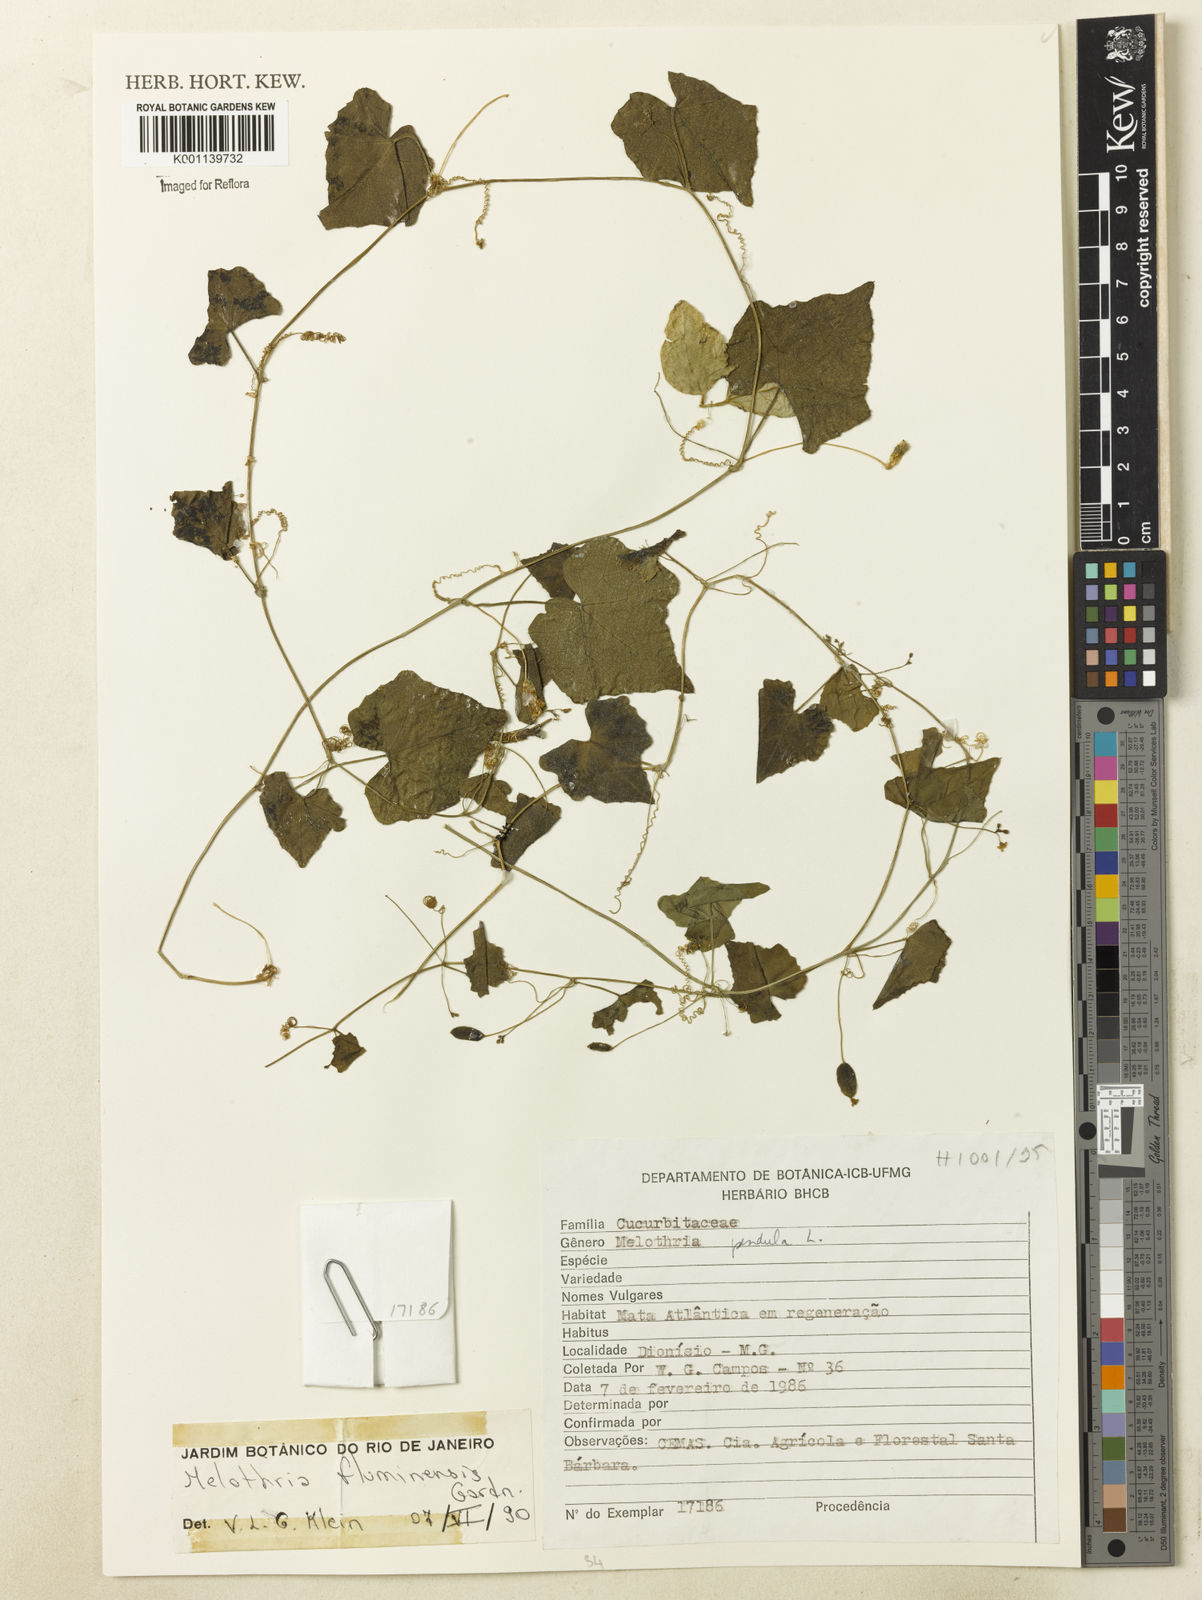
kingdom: Plantae
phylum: Tracheophyta
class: Magnoliopsida
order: Cucurbitales
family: Cucurbitaceae
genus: Melothria
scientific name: Melothria pendula
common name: Creeping-cucumber
